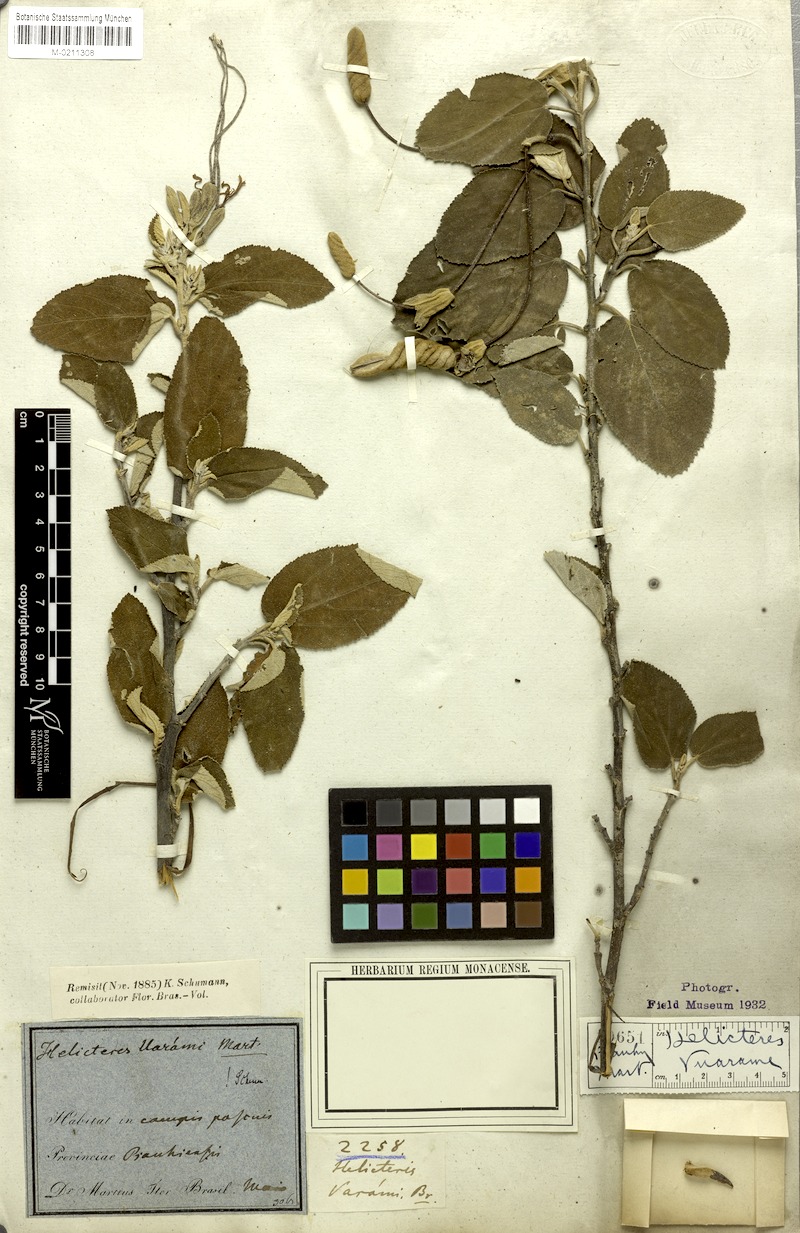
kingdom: Plantae
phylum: Tracheophyta
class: Magnoliopsida
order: Malvales
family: Malvaceae
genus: Helicteres
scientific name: Helicteres vuarame
